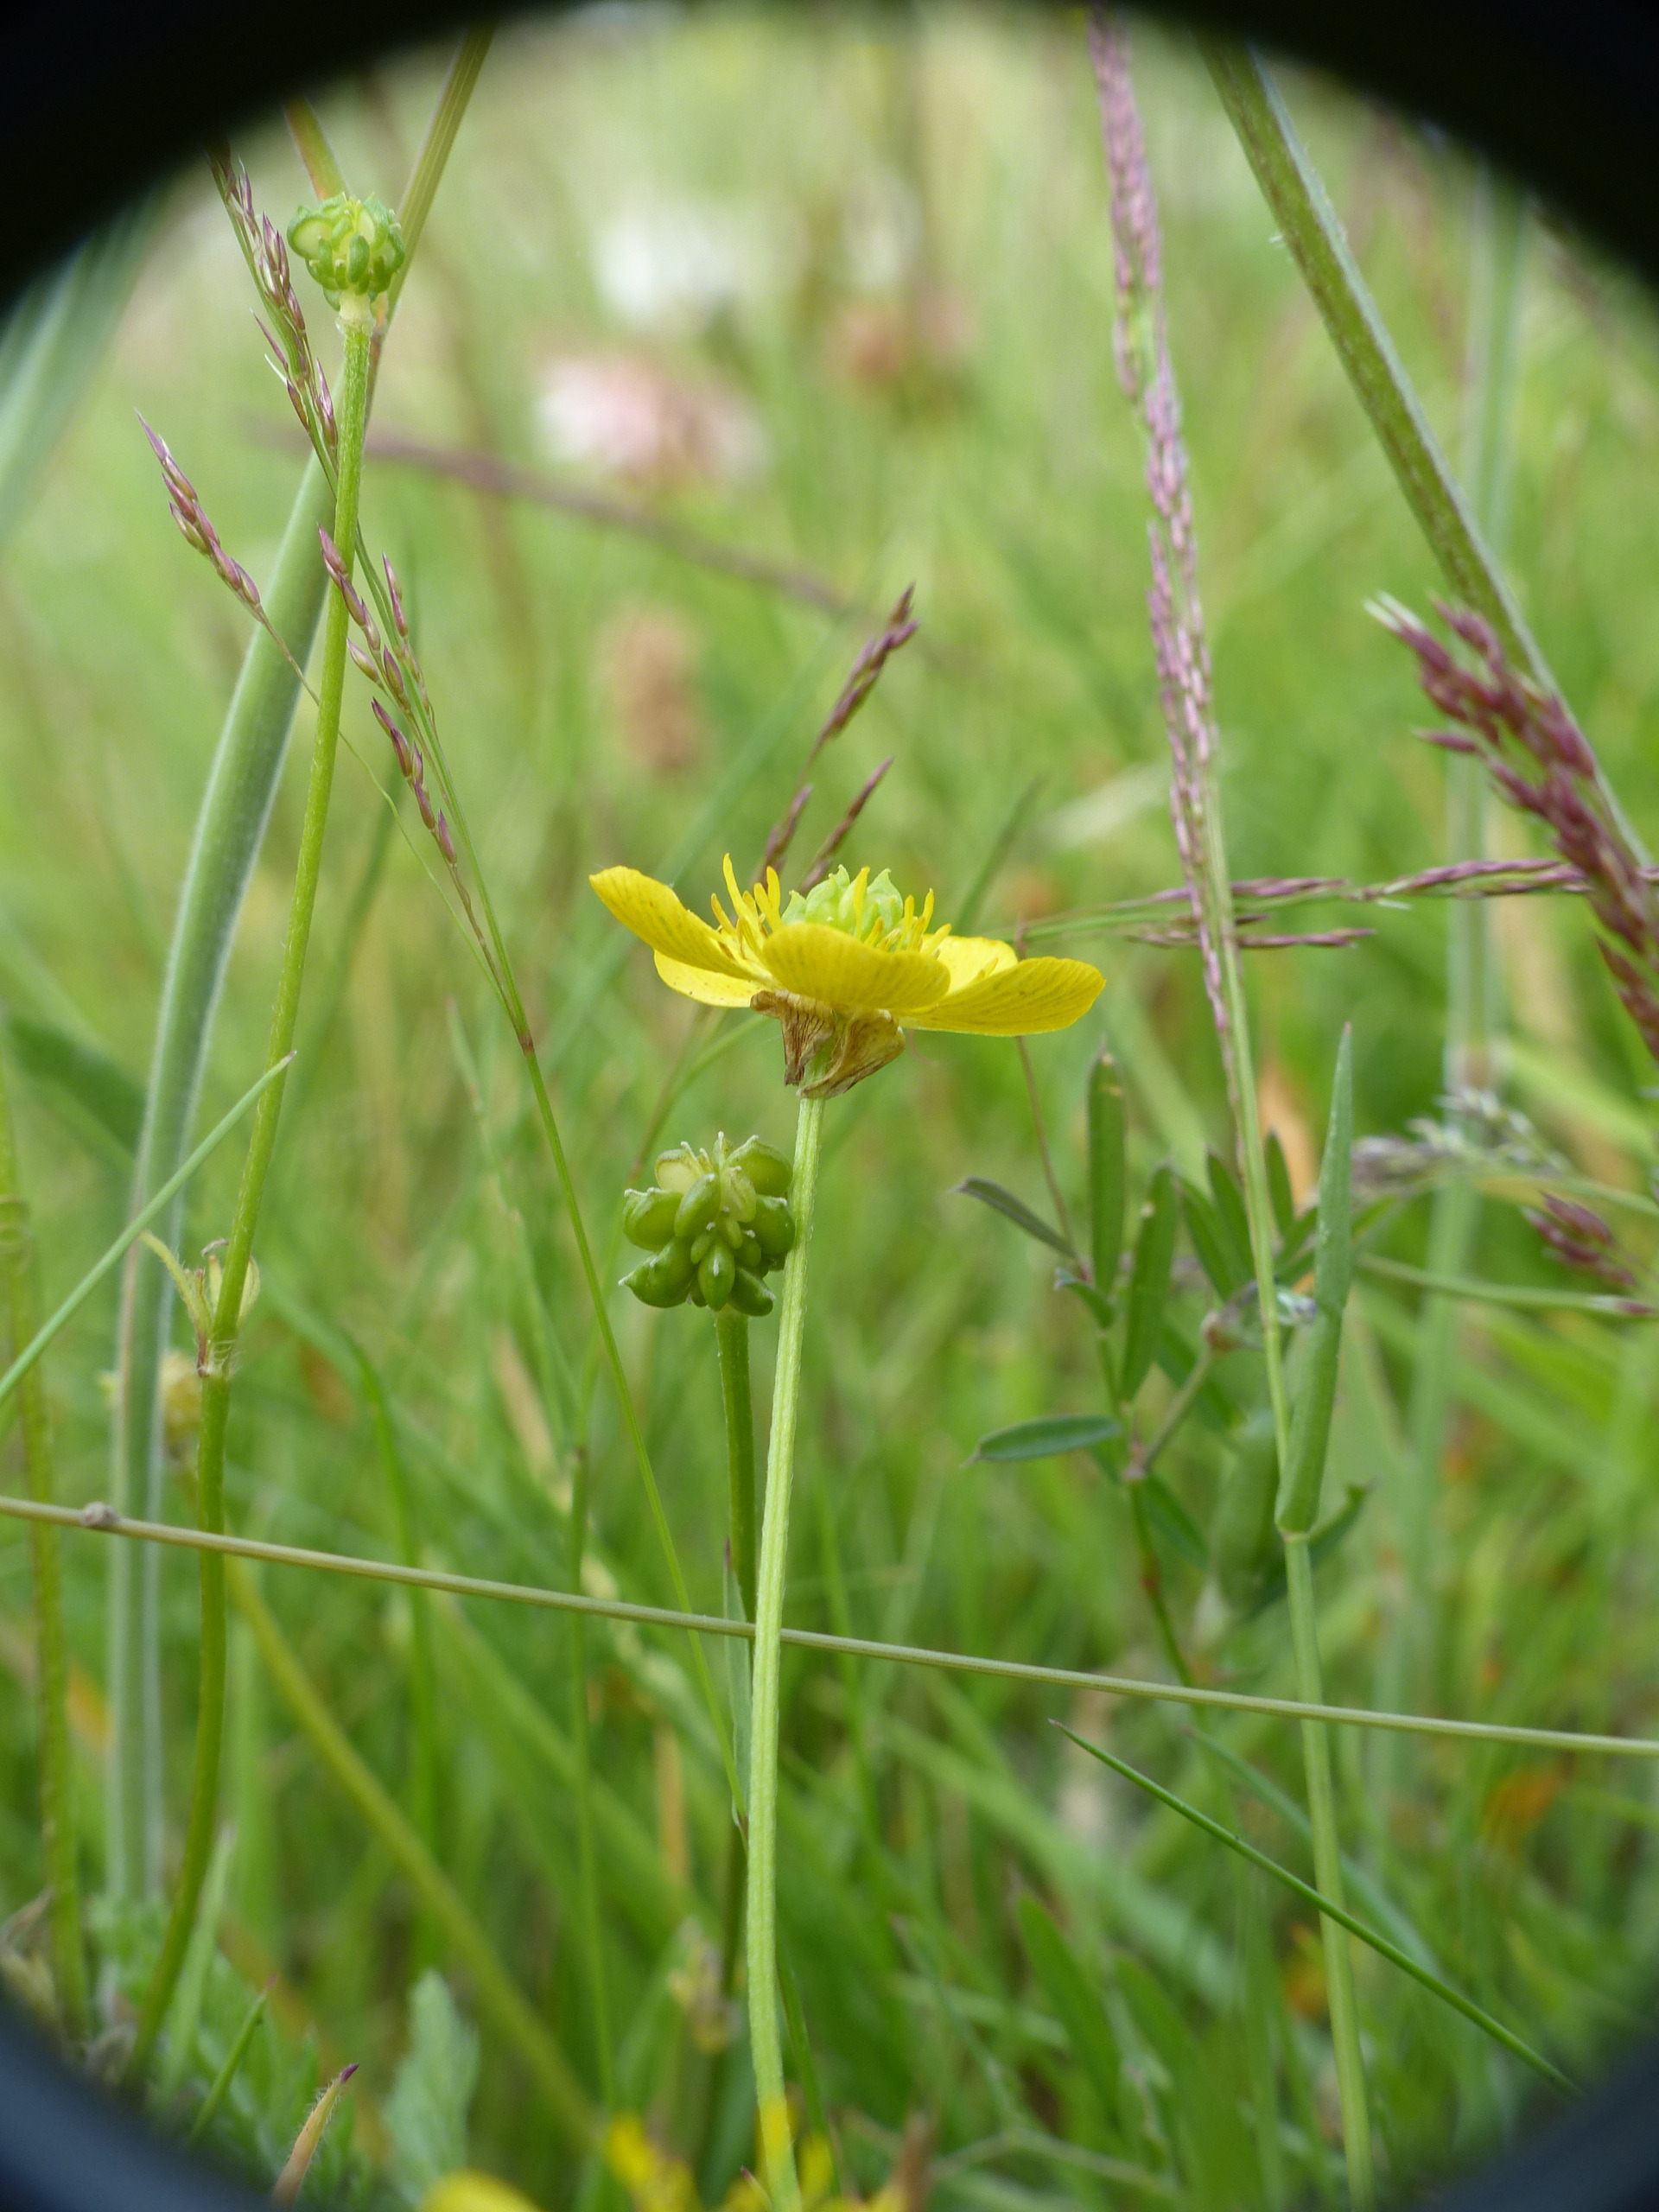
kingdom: Plantae
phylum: Tracheophyta
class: Magnoliopsida
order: Ranunculales
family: Ranunculaceae
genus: Ranunculus
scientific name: Ranunculus bulbosus
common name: Knold-ranunkel
